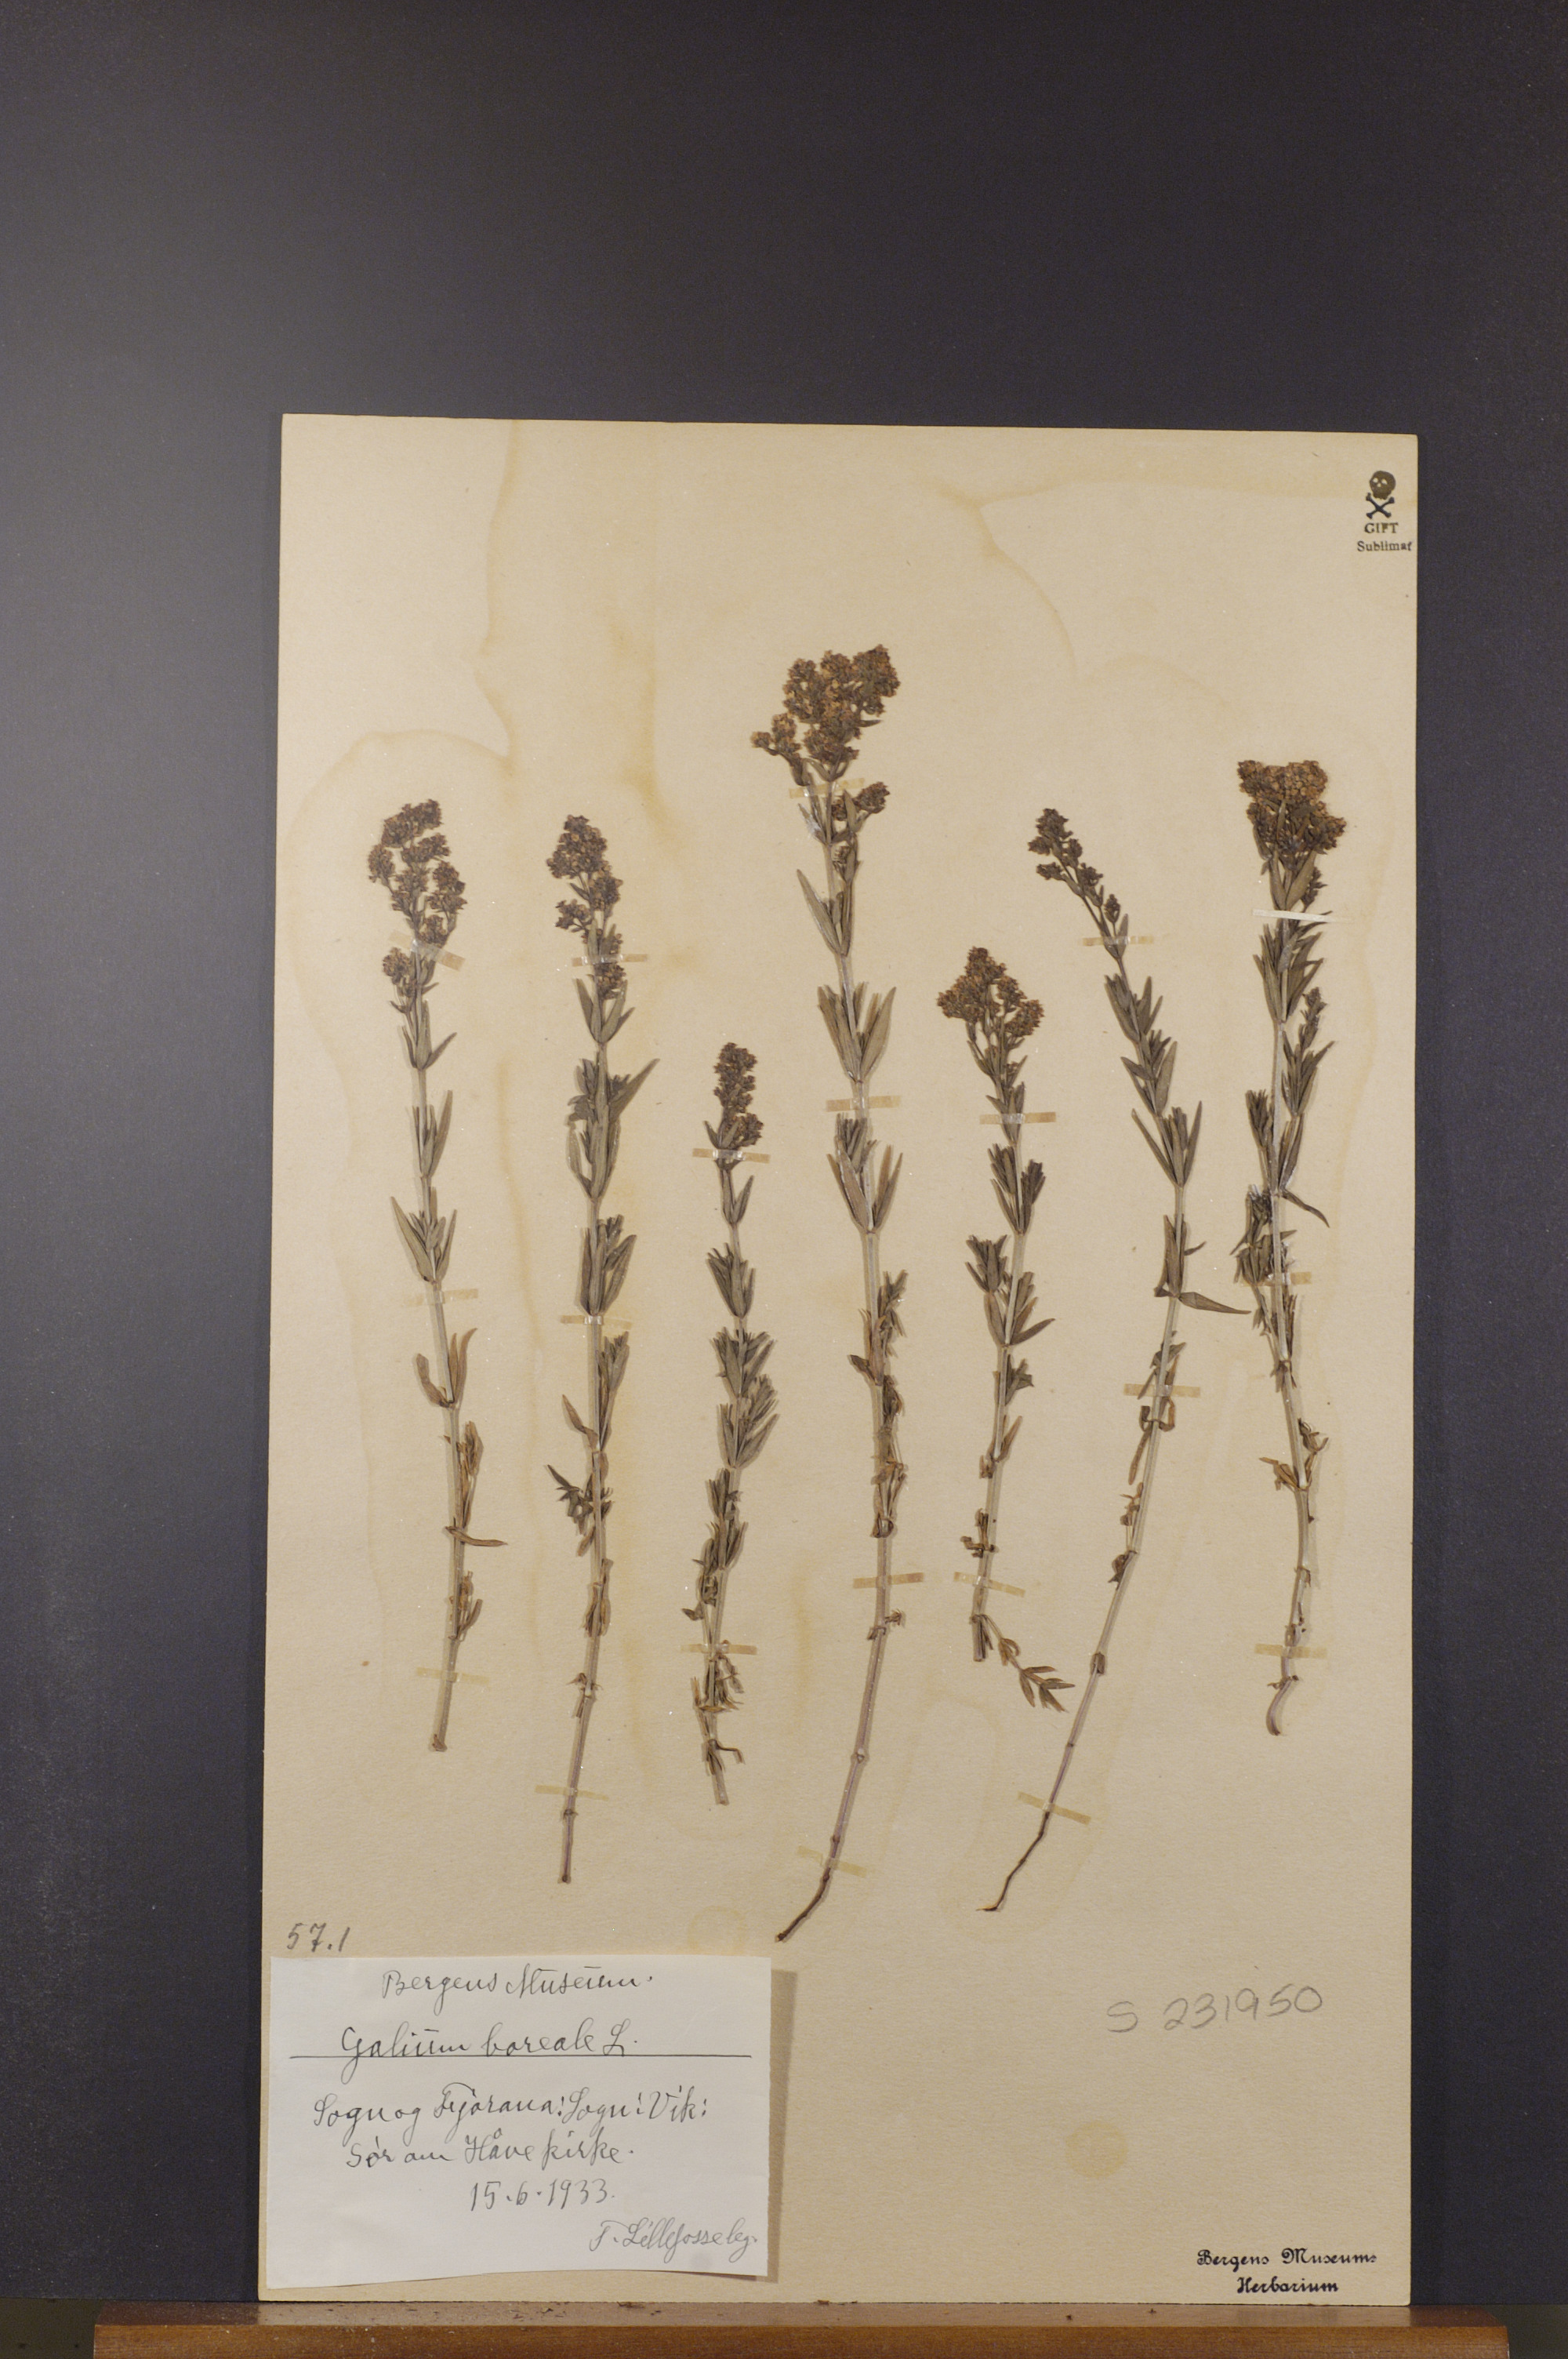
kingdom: Plantae
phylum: Tracheophyta
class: Magnoliopsida
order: Gentianales
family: Rubiaceae
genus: Galium
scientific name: Galium boreale
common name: Northern bedstraw
